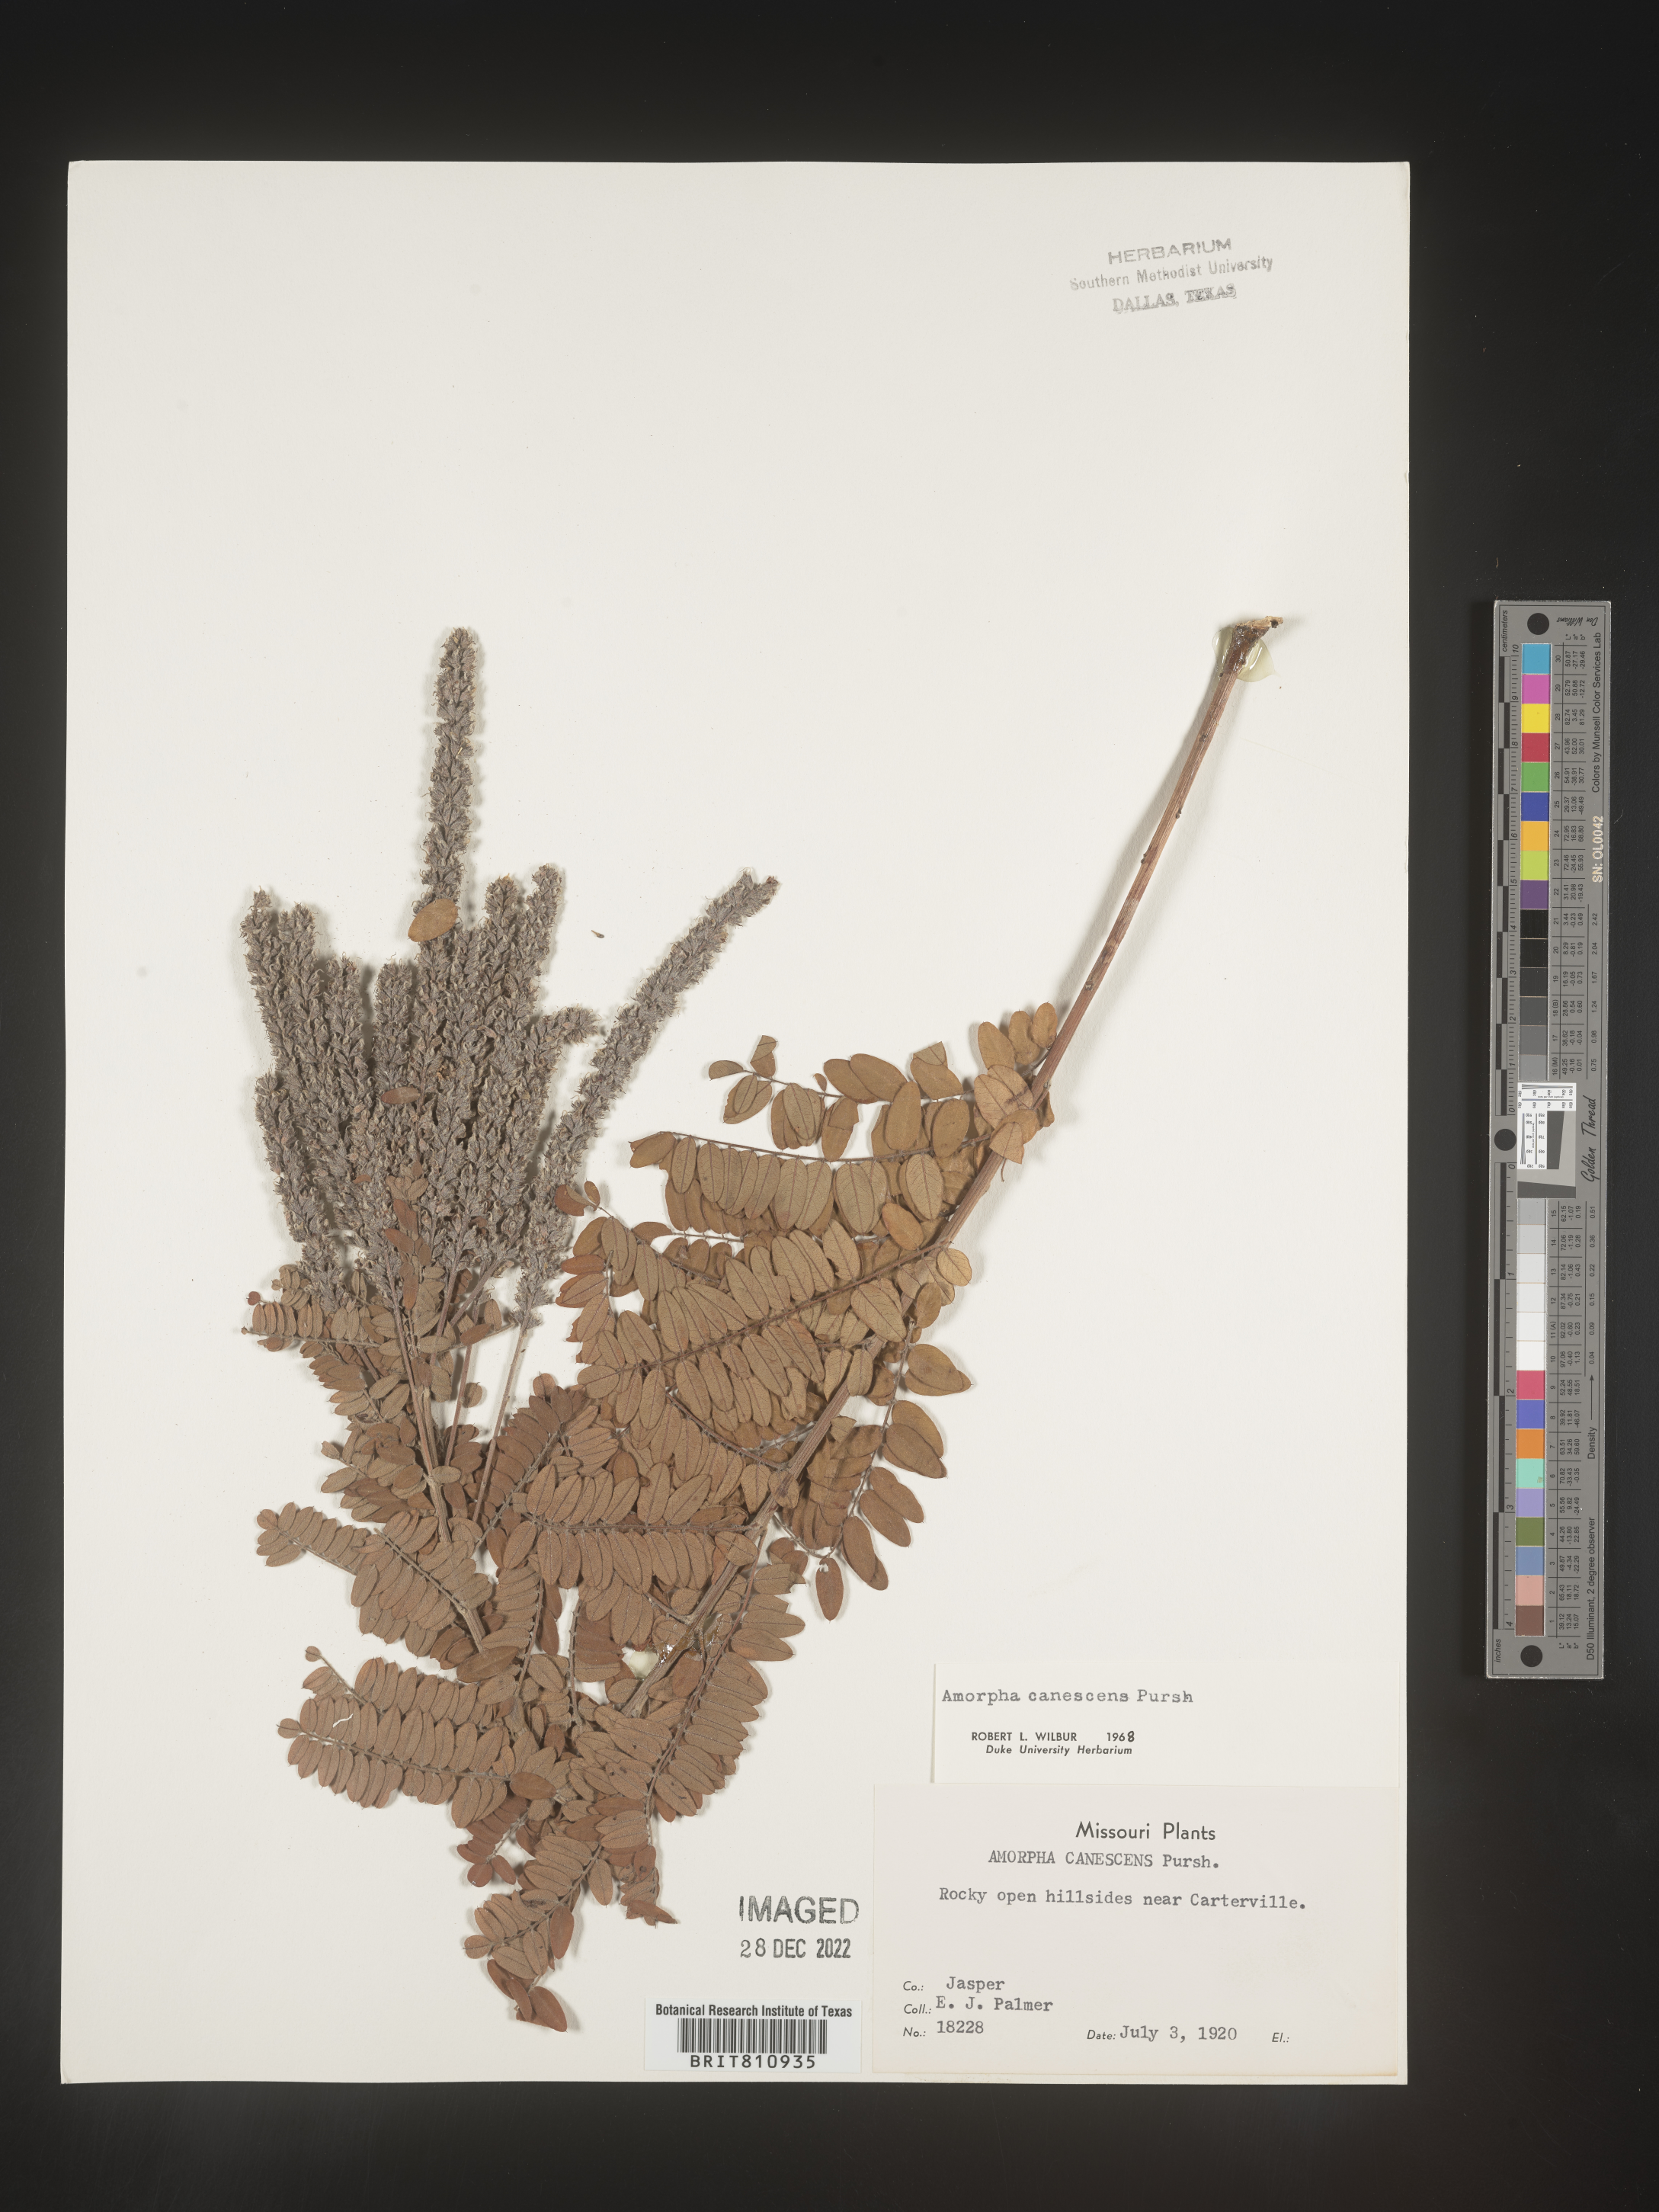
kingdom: Plantae
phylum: Tracheophyta
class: Magnoliopsida
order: Fabales
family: Fabaceae
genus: Amorpha
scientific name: Amorpha canescens
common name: Leadplant
